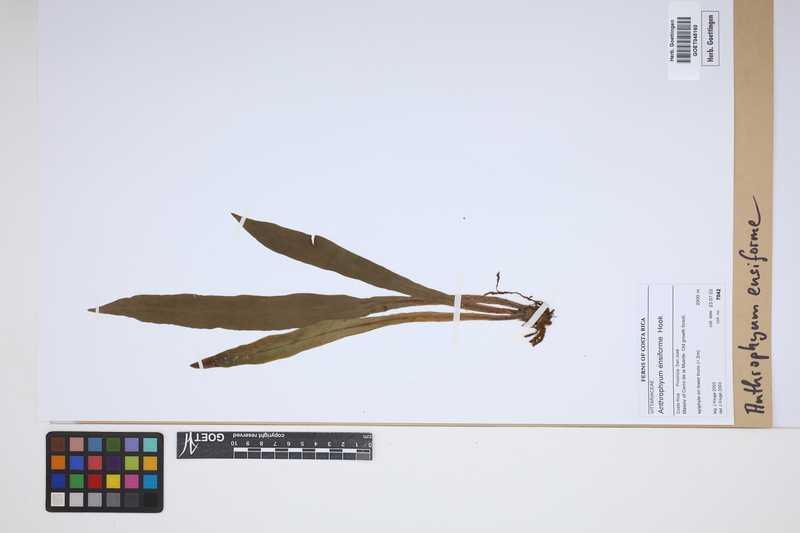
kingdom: Plantae
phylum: Tracheophyta
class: Polypodiopsida
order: Polypodiales
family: Pteridaceae
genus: Scoliosorus
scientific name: Scoliosorus ensiformis
